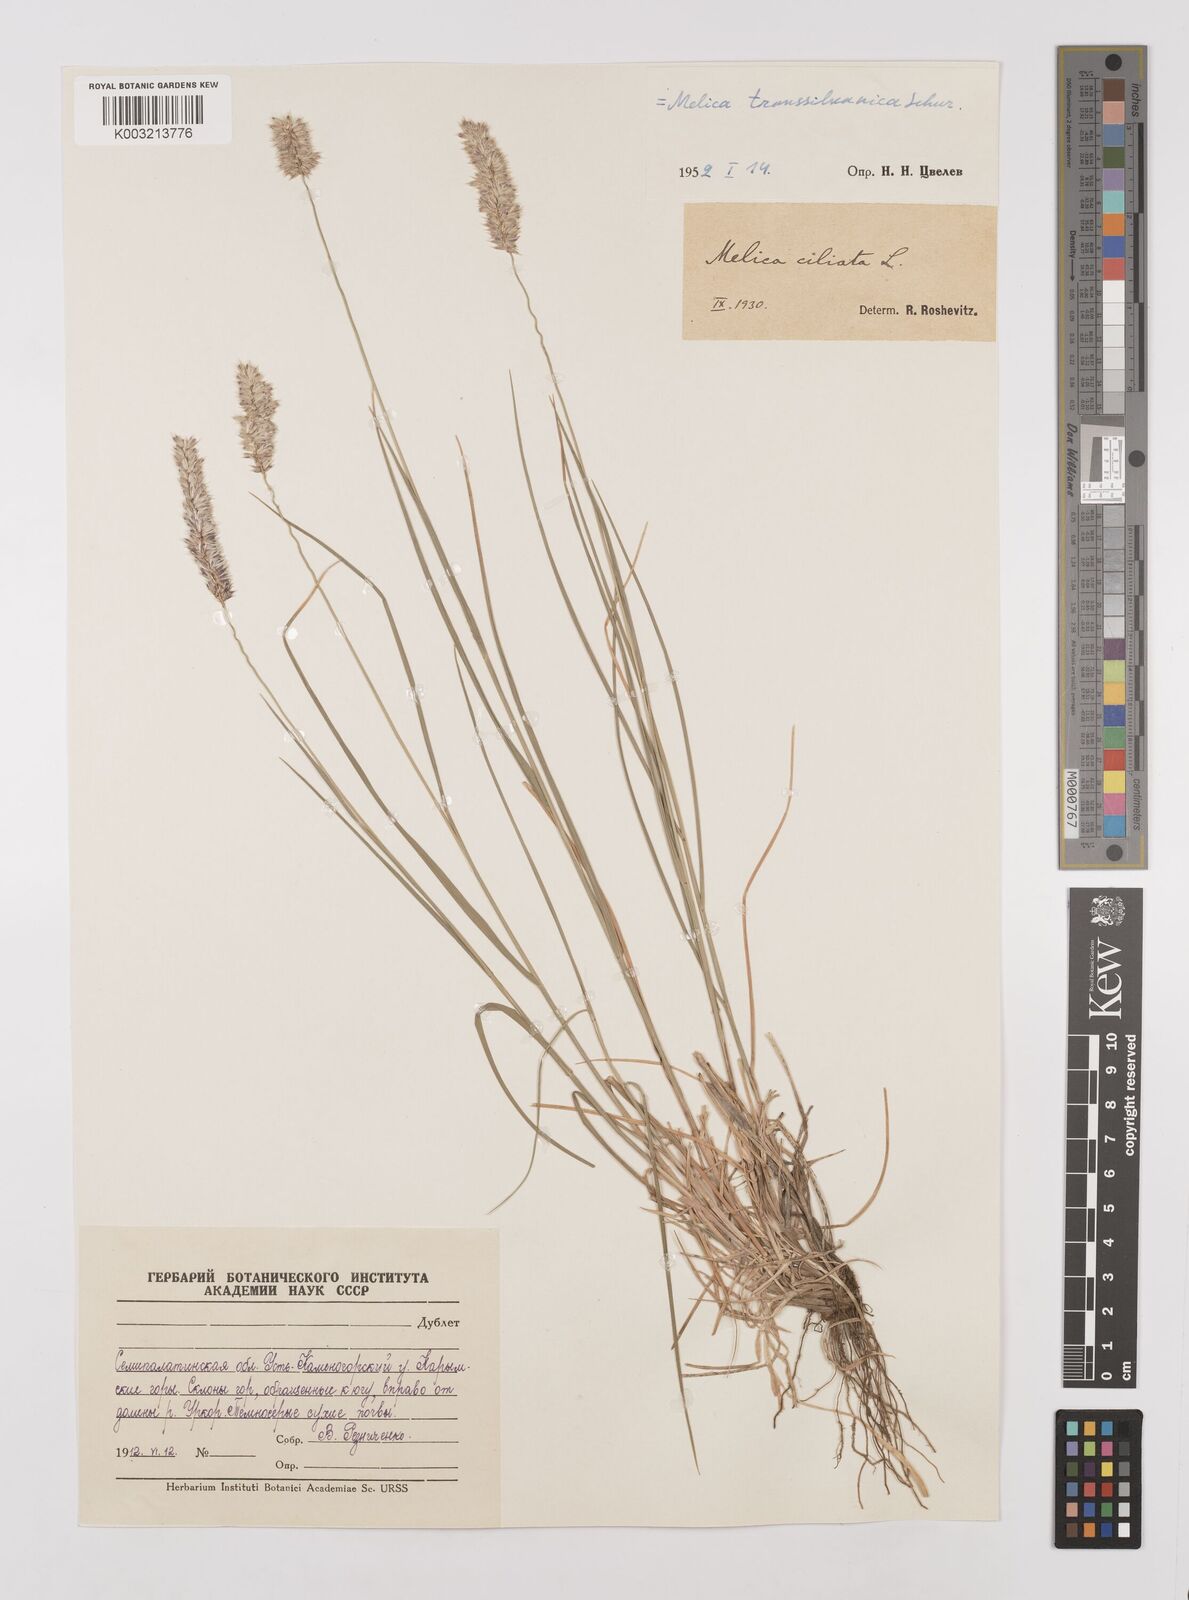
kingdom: Plantae
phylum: Tracheophyta
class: Liliopsida
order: Poales
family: Poaceae
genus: Melica
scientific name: Melica transsilvanica
